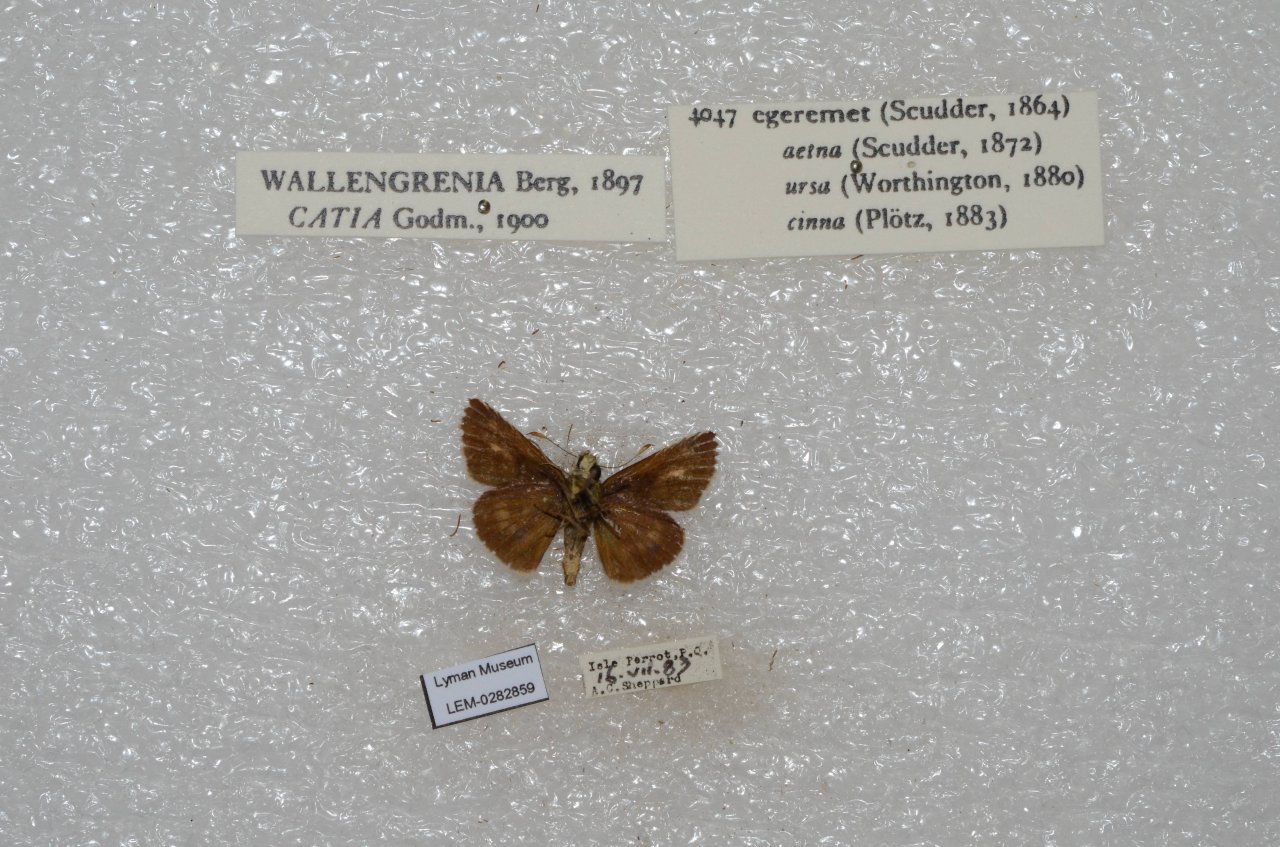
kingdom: Animalia
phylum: Arthropoda
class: Insecta
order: Lepidoptera
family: Hesperiidae
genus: Polites
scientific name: Polites egeremet
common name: Northern Broken-Dash
